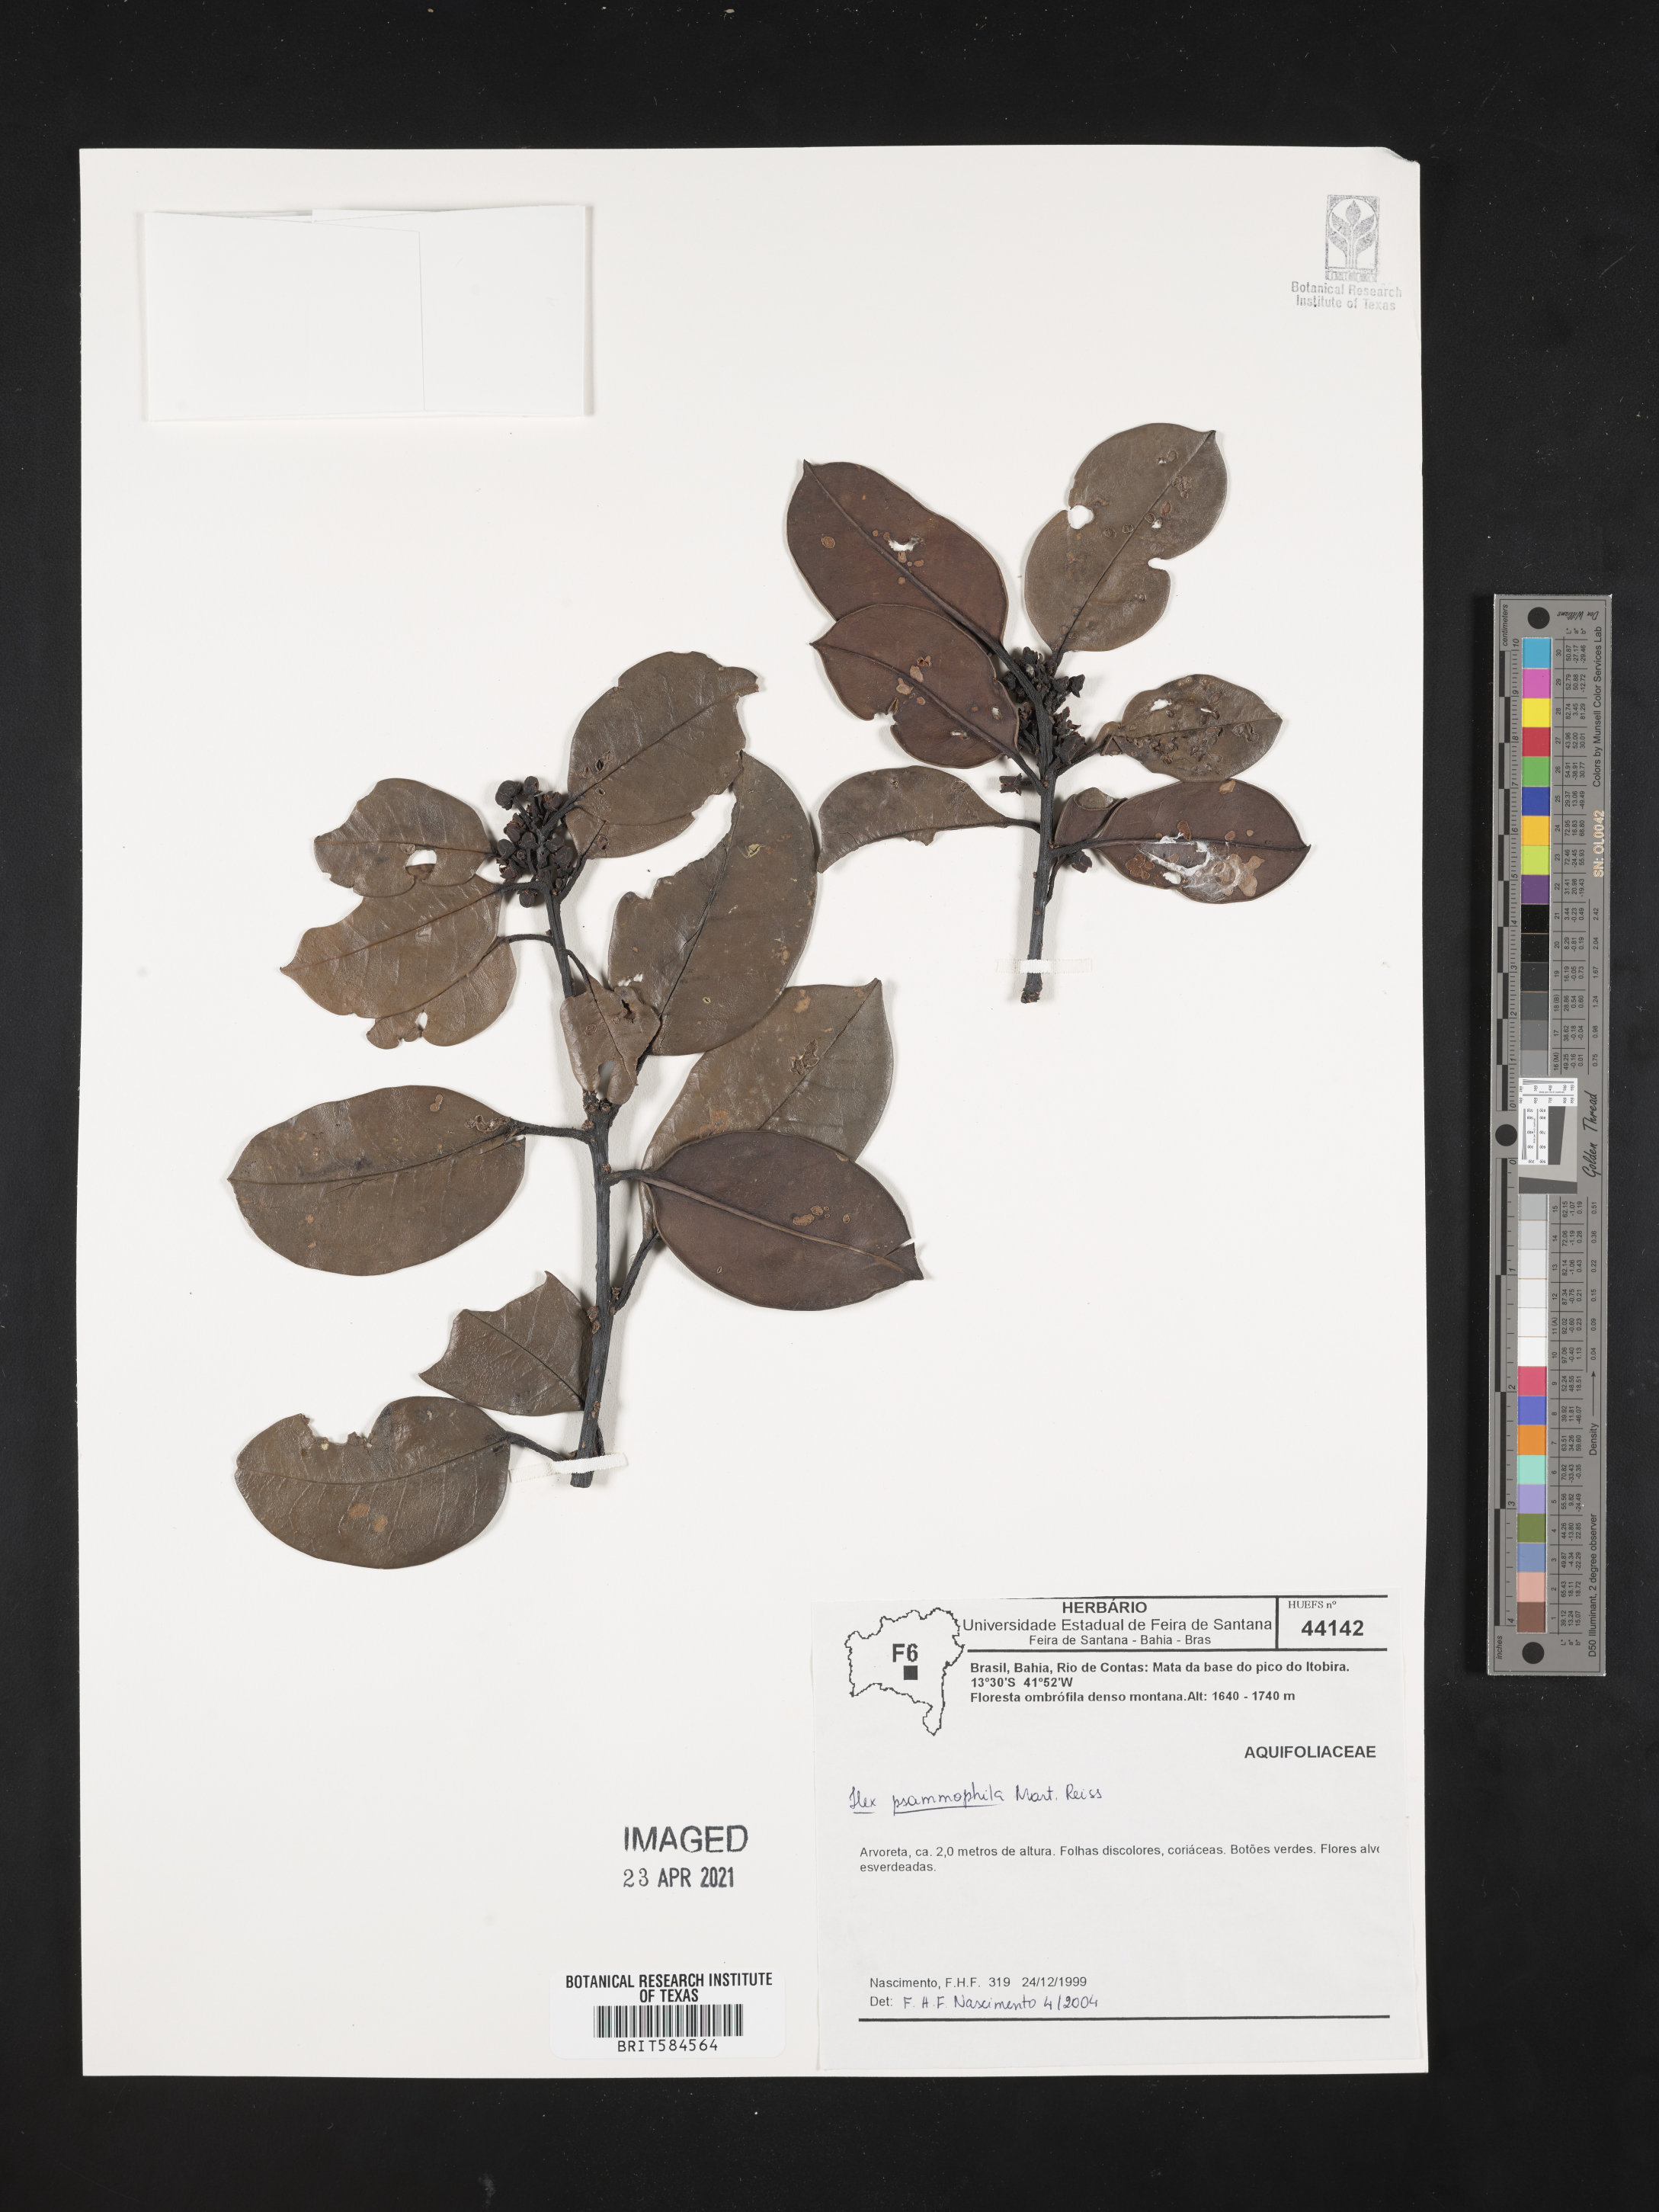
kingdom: Plantae
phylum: Tracheophyta
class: Magnoliopsida
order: Aquifoliales
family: Aquifoliaceae
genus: Ilex
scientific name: Ilex psammophila
